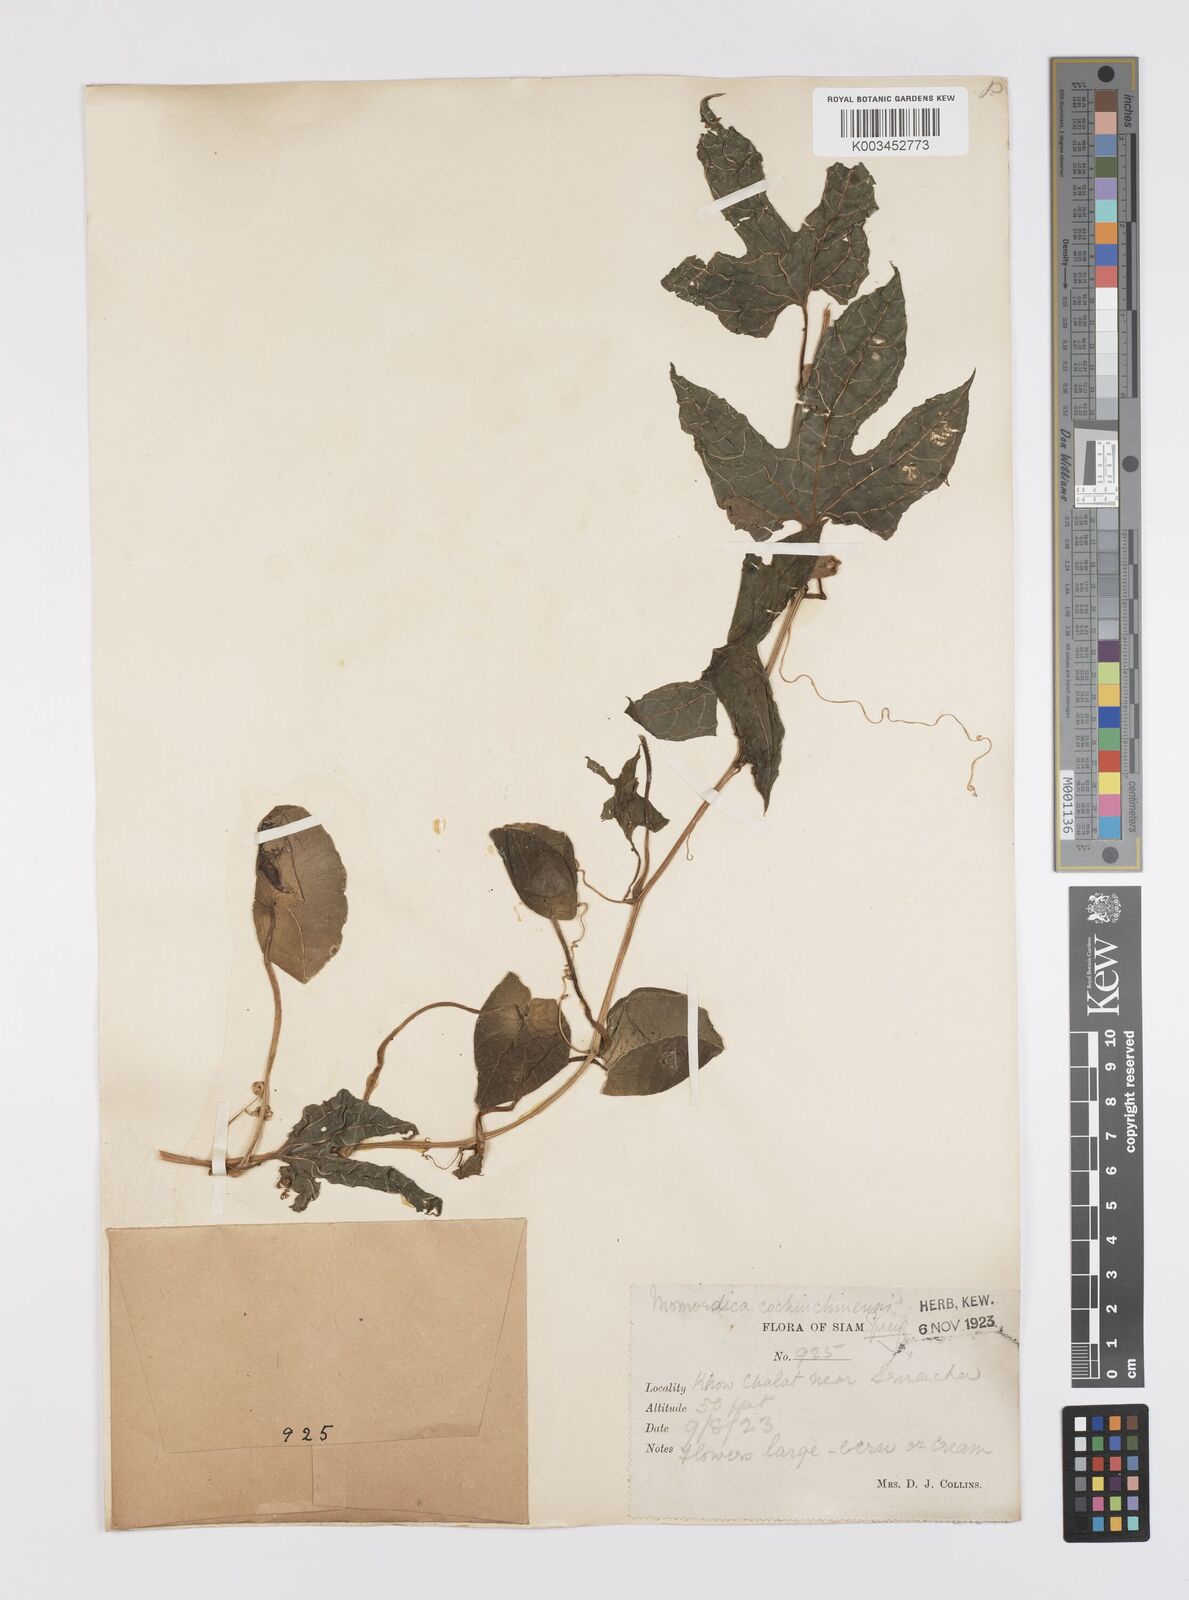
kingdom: Plantae
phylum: Tracheophyta
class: Magnoliopsida
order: Cucurbitales
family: Cucurbitaceae
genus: Momordica
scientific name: Momordica cochinchinensis
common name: Chinese bitter-cucumber
